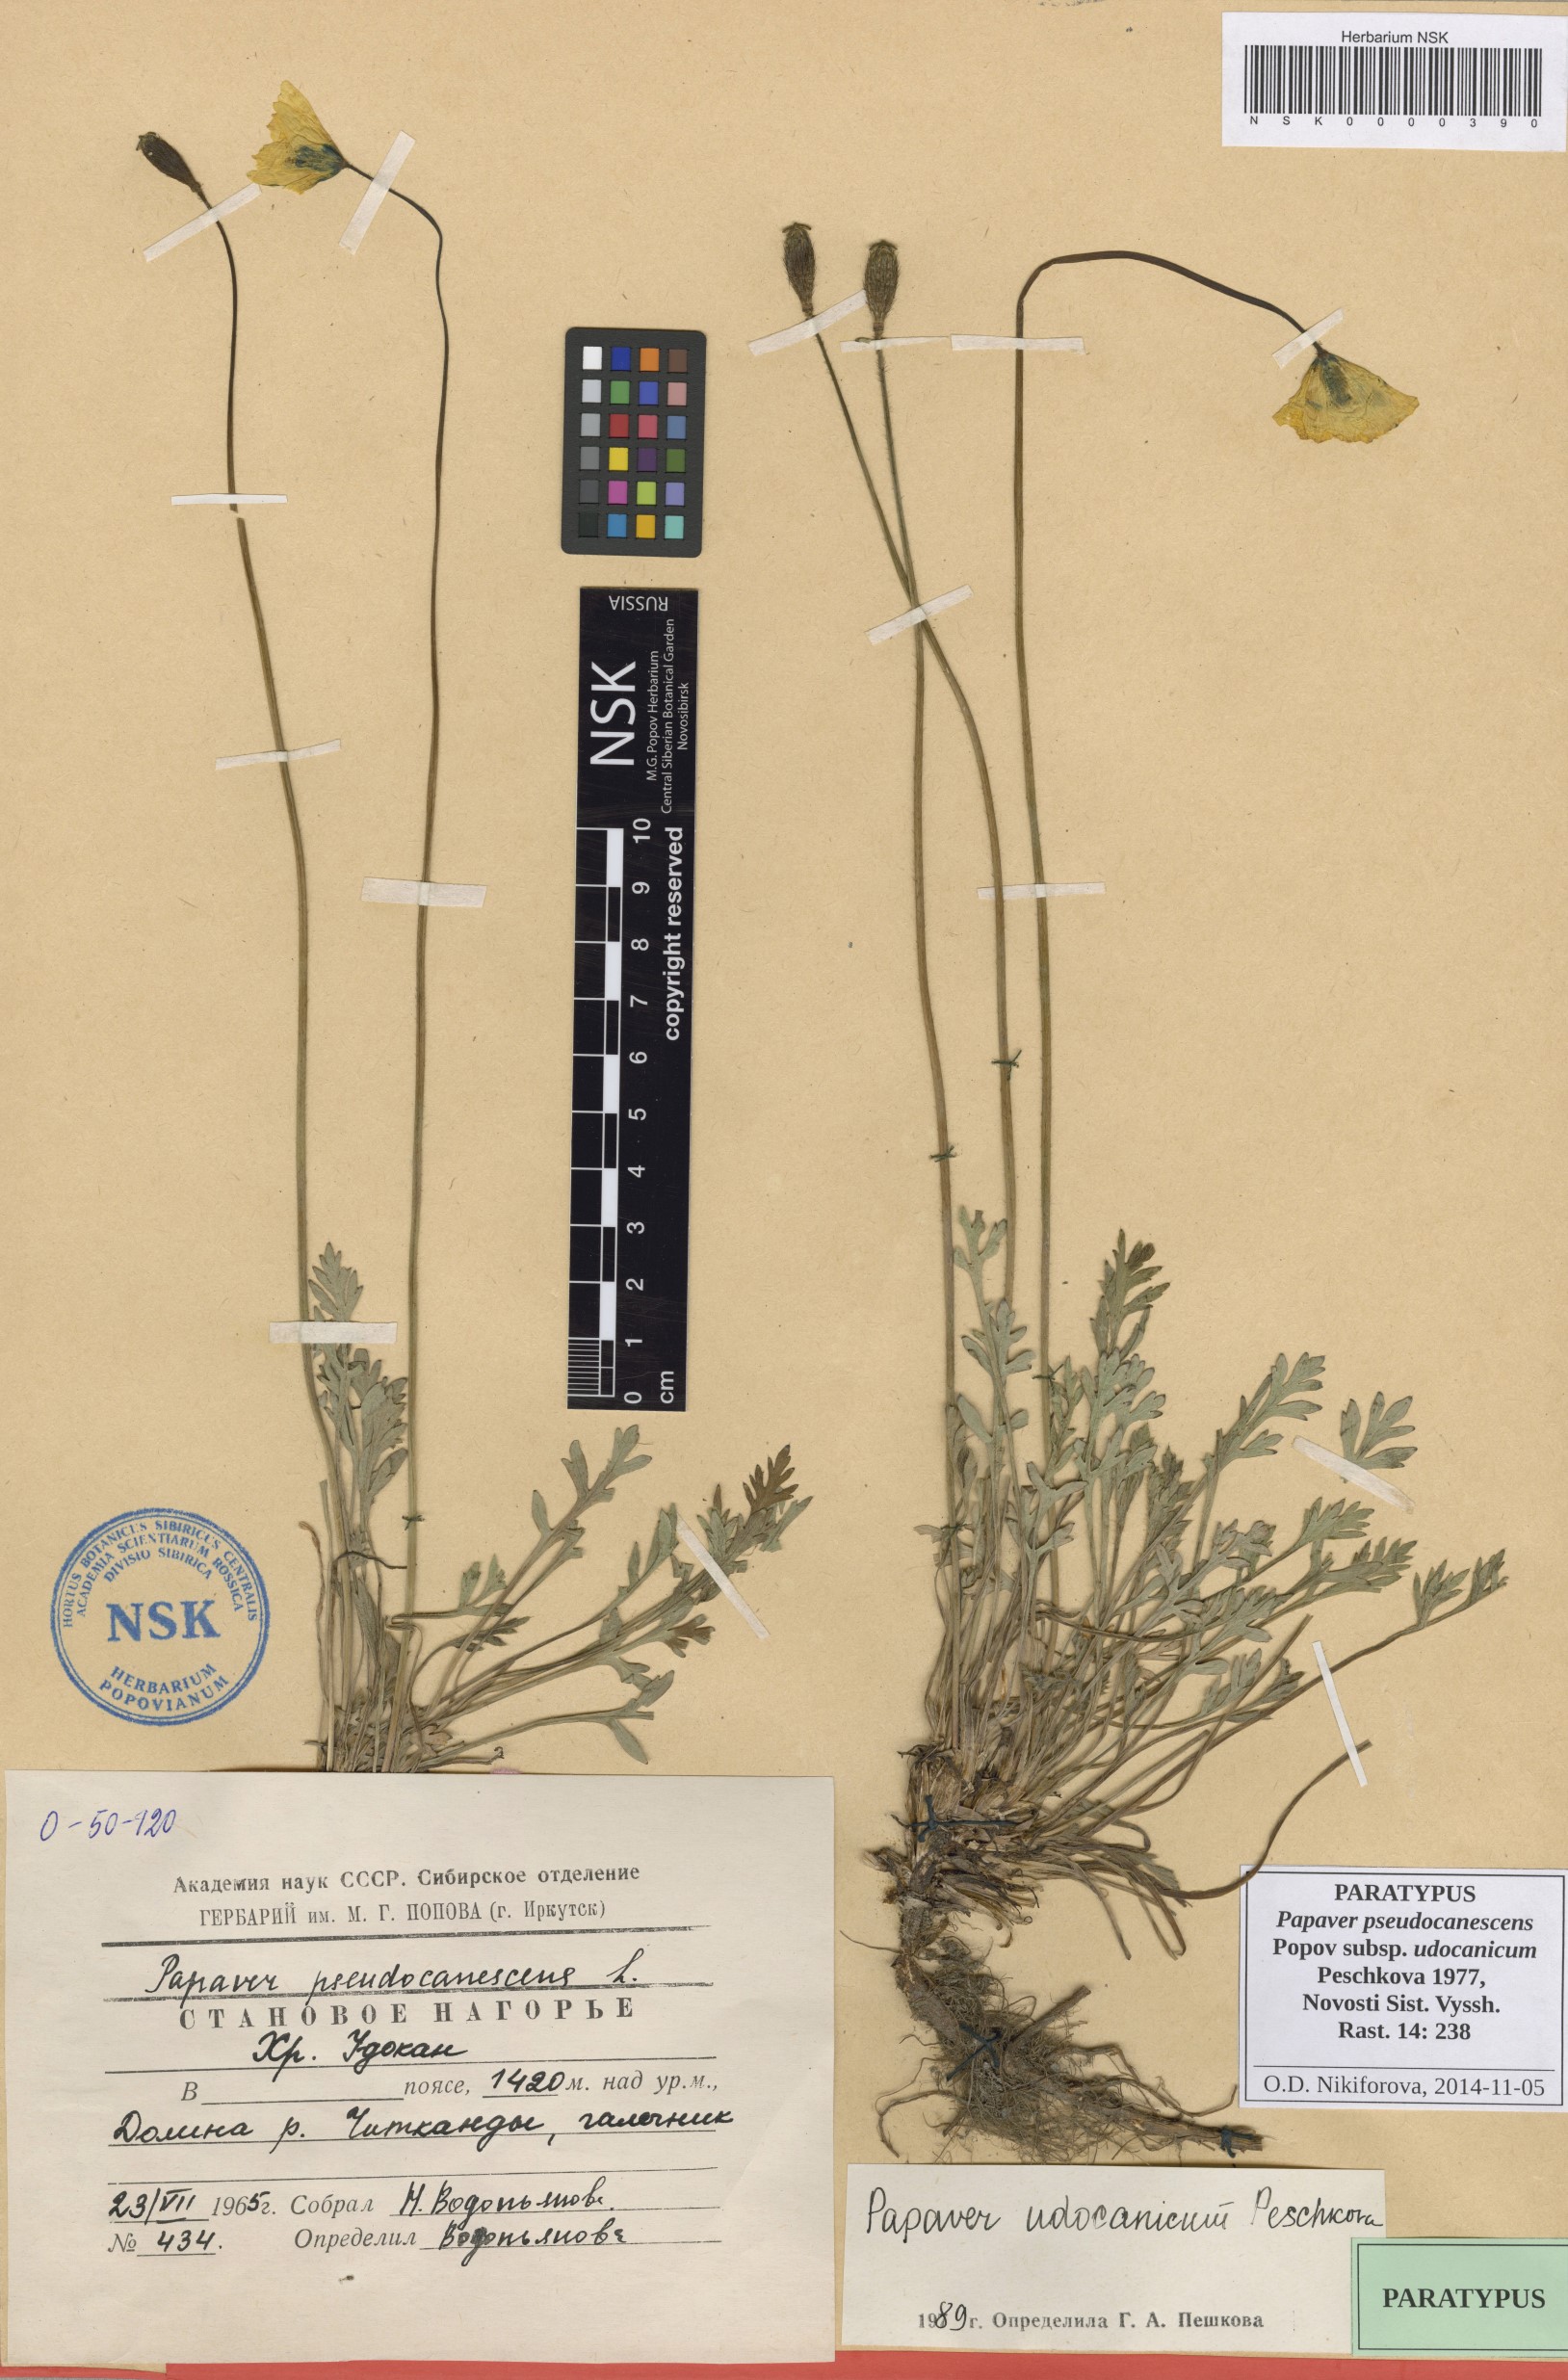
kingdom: Plantae
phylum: Tracheophyta
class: Magnoliopsida
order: Ranunculales
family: Papaveraceae
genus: Papaver
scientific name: Papaver udocanicum
